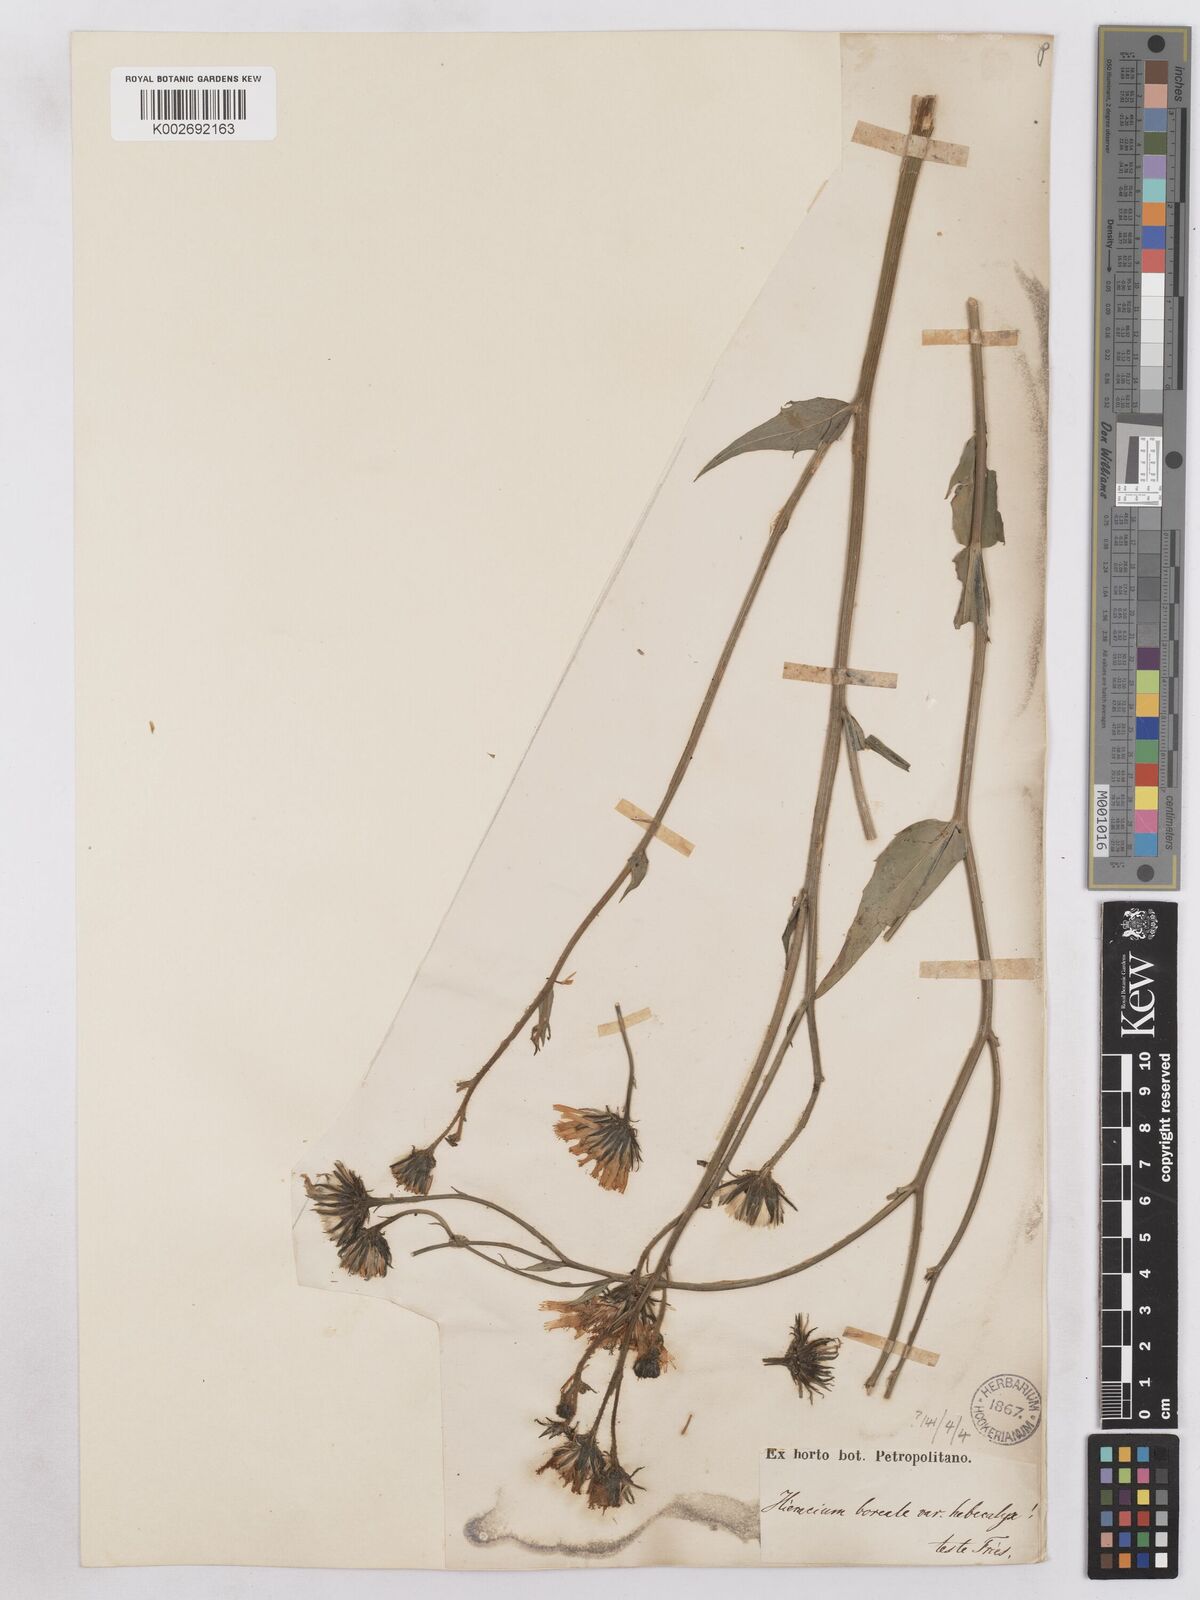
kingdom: Plantae
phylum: Tracheophyta
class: Magnoliopsida
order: Asterales
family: Asteraceae
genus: Hieracium
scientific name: Hieracium diaphanoides
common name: Fine-bracted hawkweed
